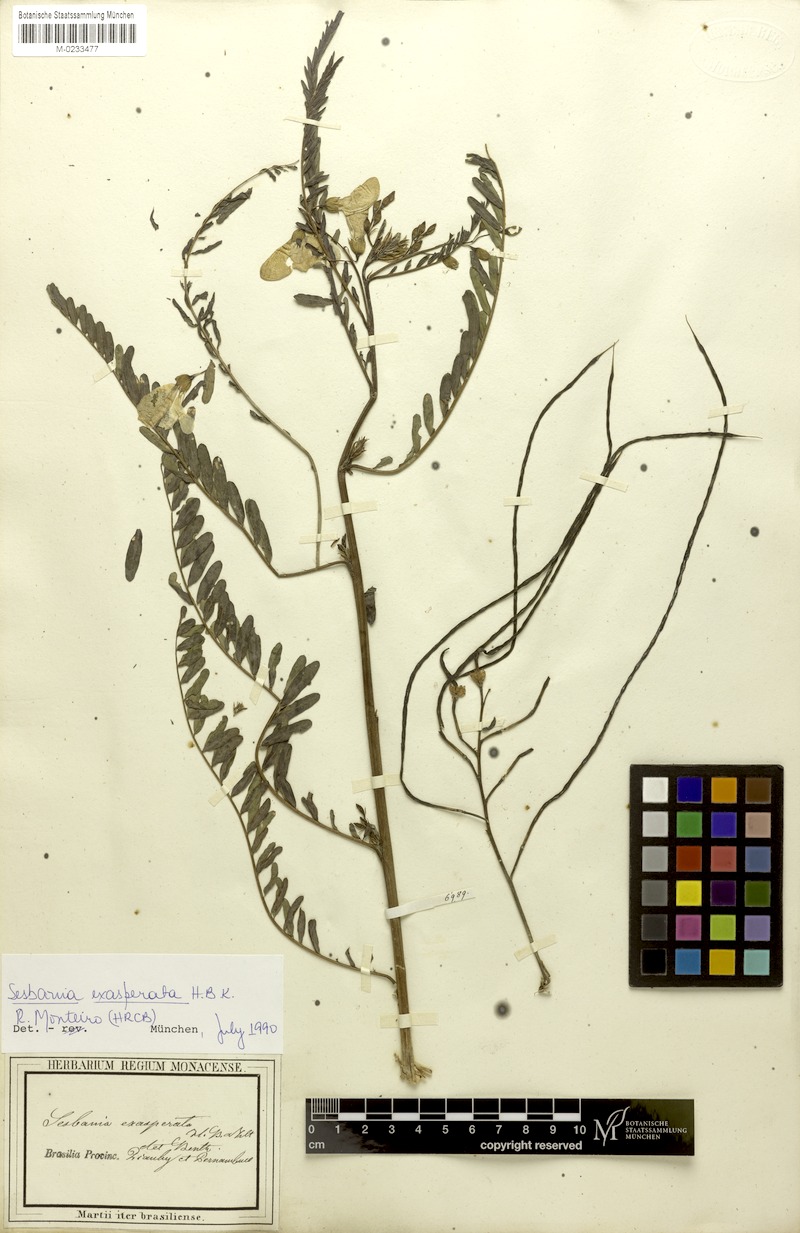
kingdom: Plantae
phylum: Tracheophyta
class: Magnoliopsida
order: Fabales
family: Fabaceae
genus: Sesbania
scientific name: Sesbania exasperata
